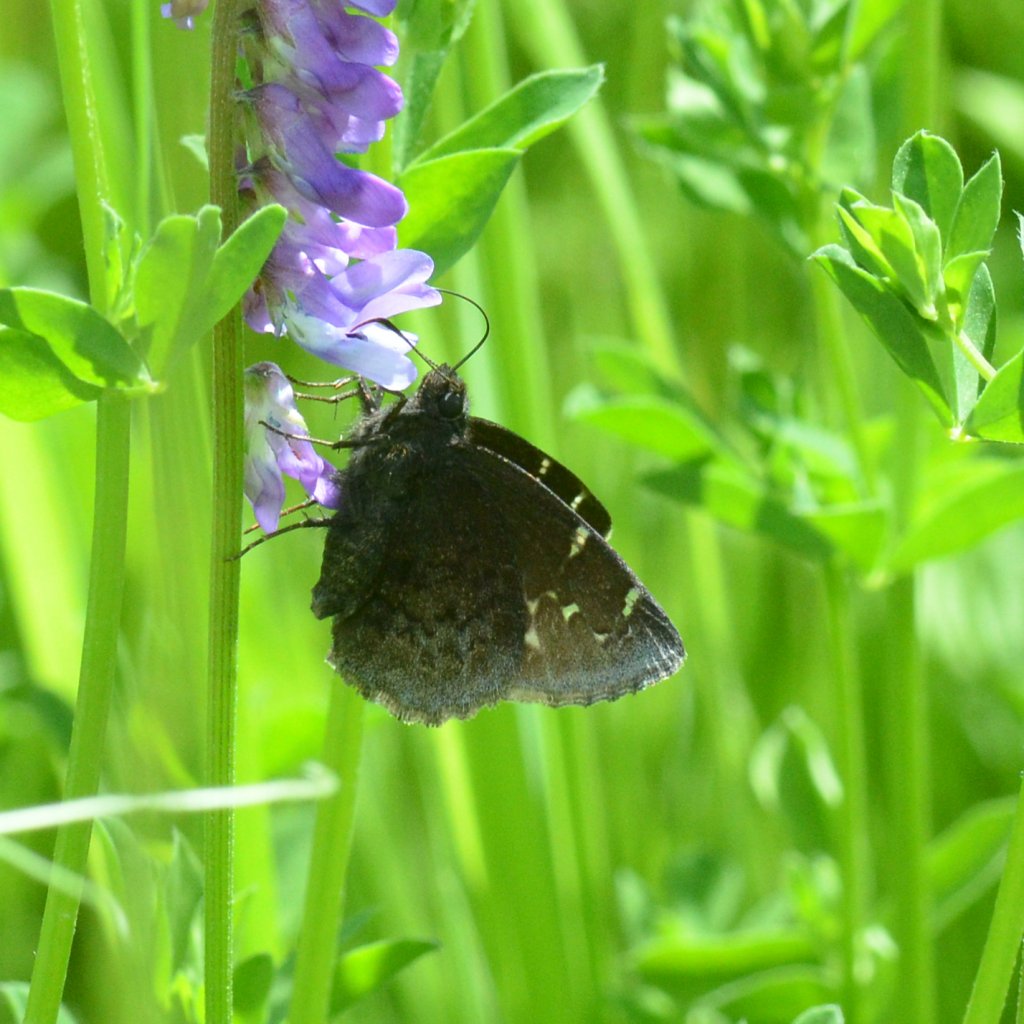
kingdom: Animalia
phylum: Arthropoda
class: Insecta
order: Lepidoptera
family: Hesperiidae
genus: Autochton
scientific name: Autochton
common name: Northern Cloudywing
